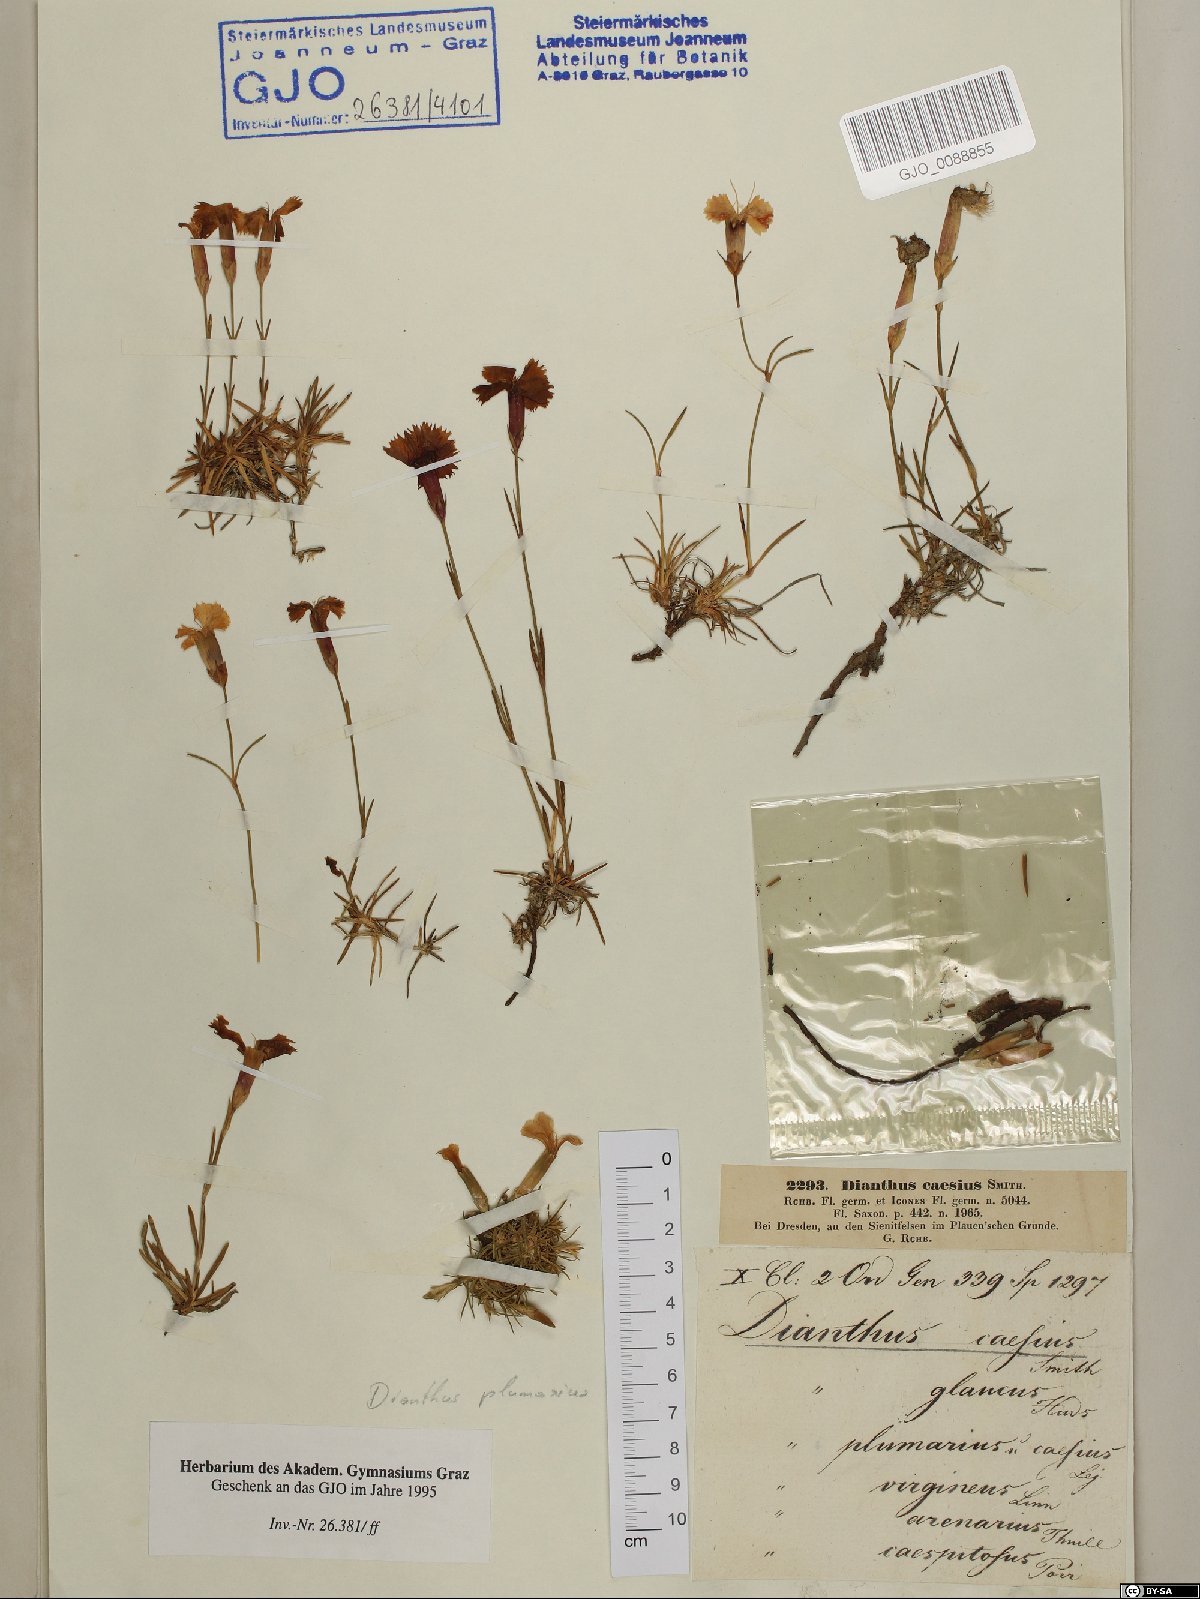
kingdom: Plantae
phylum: Tracheophyta
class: Magnoliopsida
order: Caryophyllales
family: Caryophyllaceae
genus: Dianthus
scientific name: Dianthus gratianopolitanus
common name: Cheddar pink
